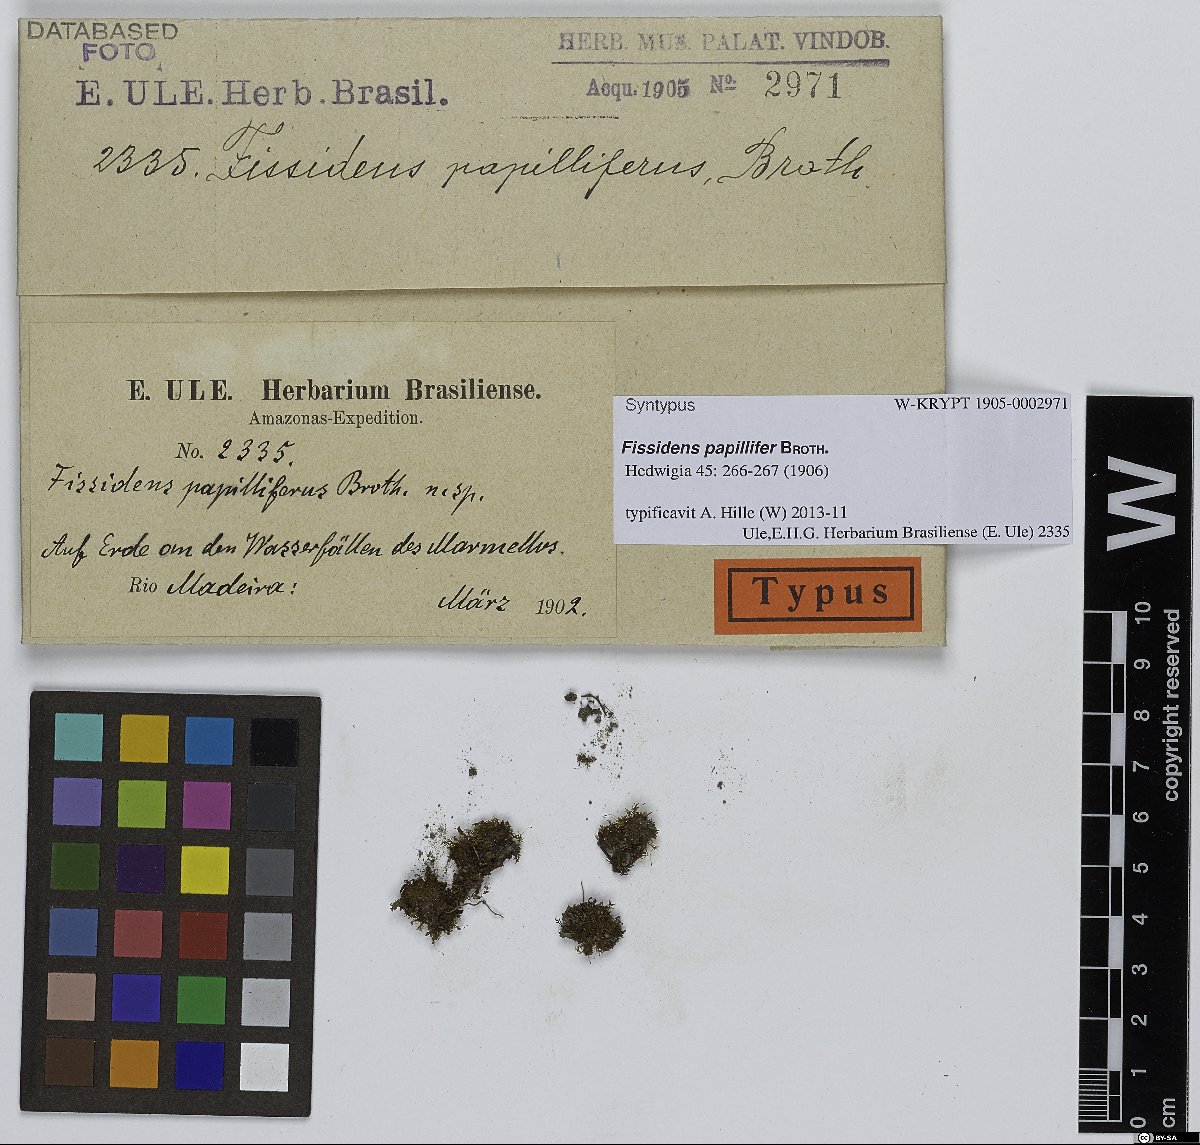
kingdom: Plantae
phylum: Bryophyta
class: Bryopsida
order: Dicranales
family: Fissidentaceae
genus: Fissidens
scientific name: Fissidens pellucidus
